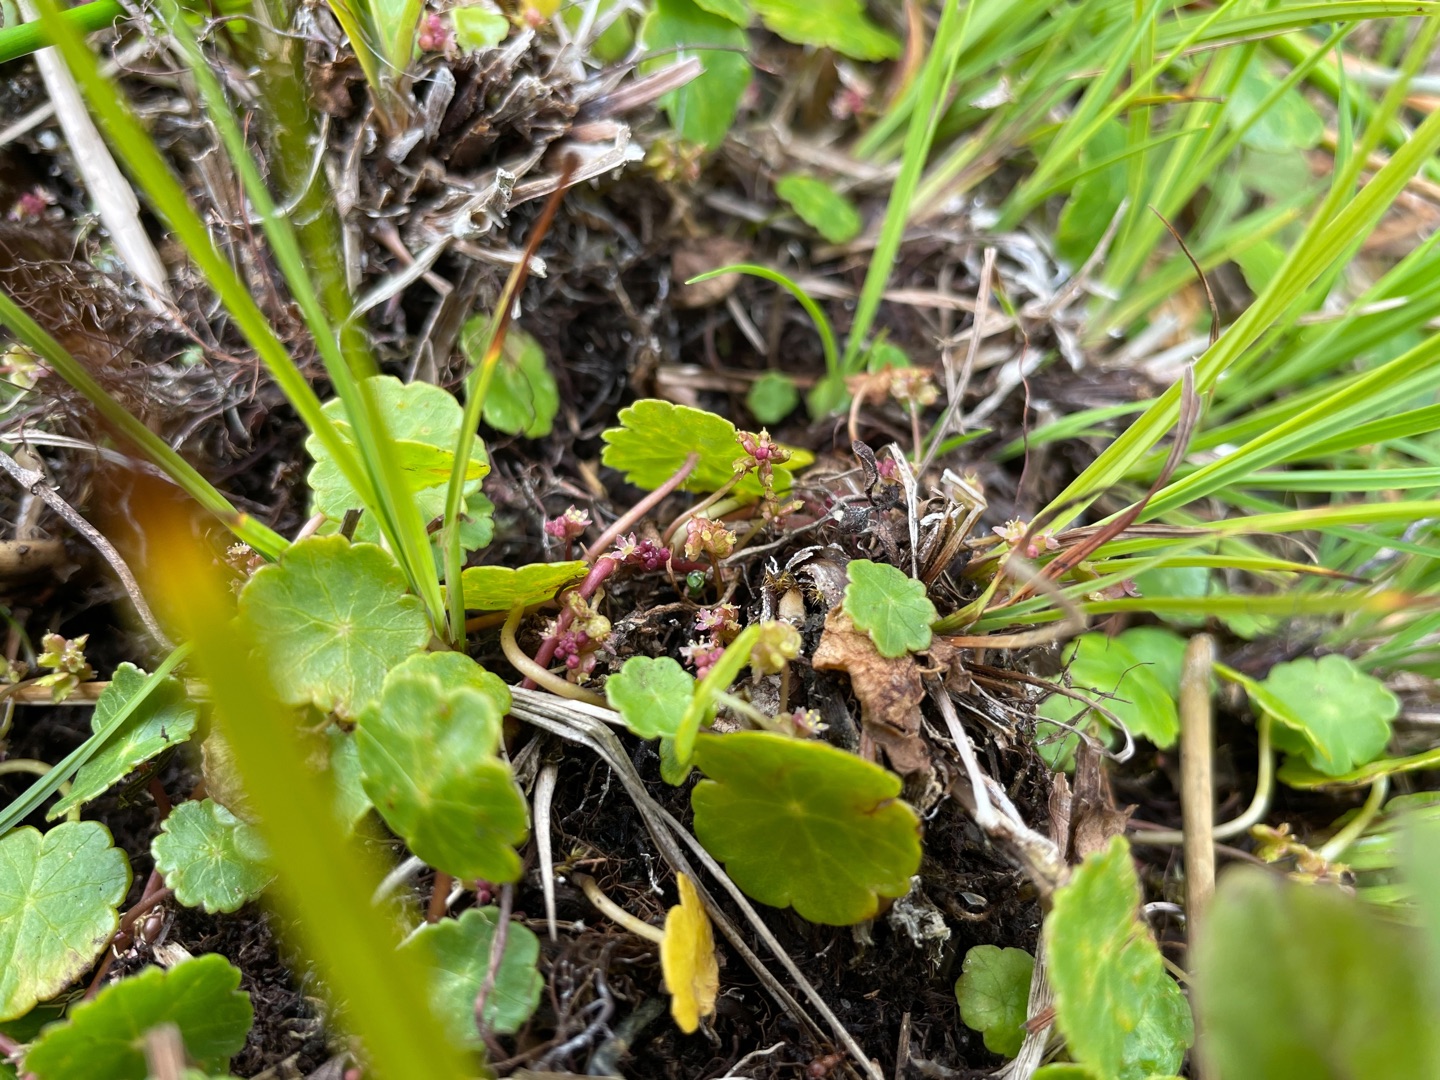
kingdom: Plantae
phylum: Tracheophyta
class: Magnoliopsida
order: Apiales
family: Araliaceae
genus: Hydrocotyle
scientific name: Hydrocotyle vulgaris
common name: Vandnavle
